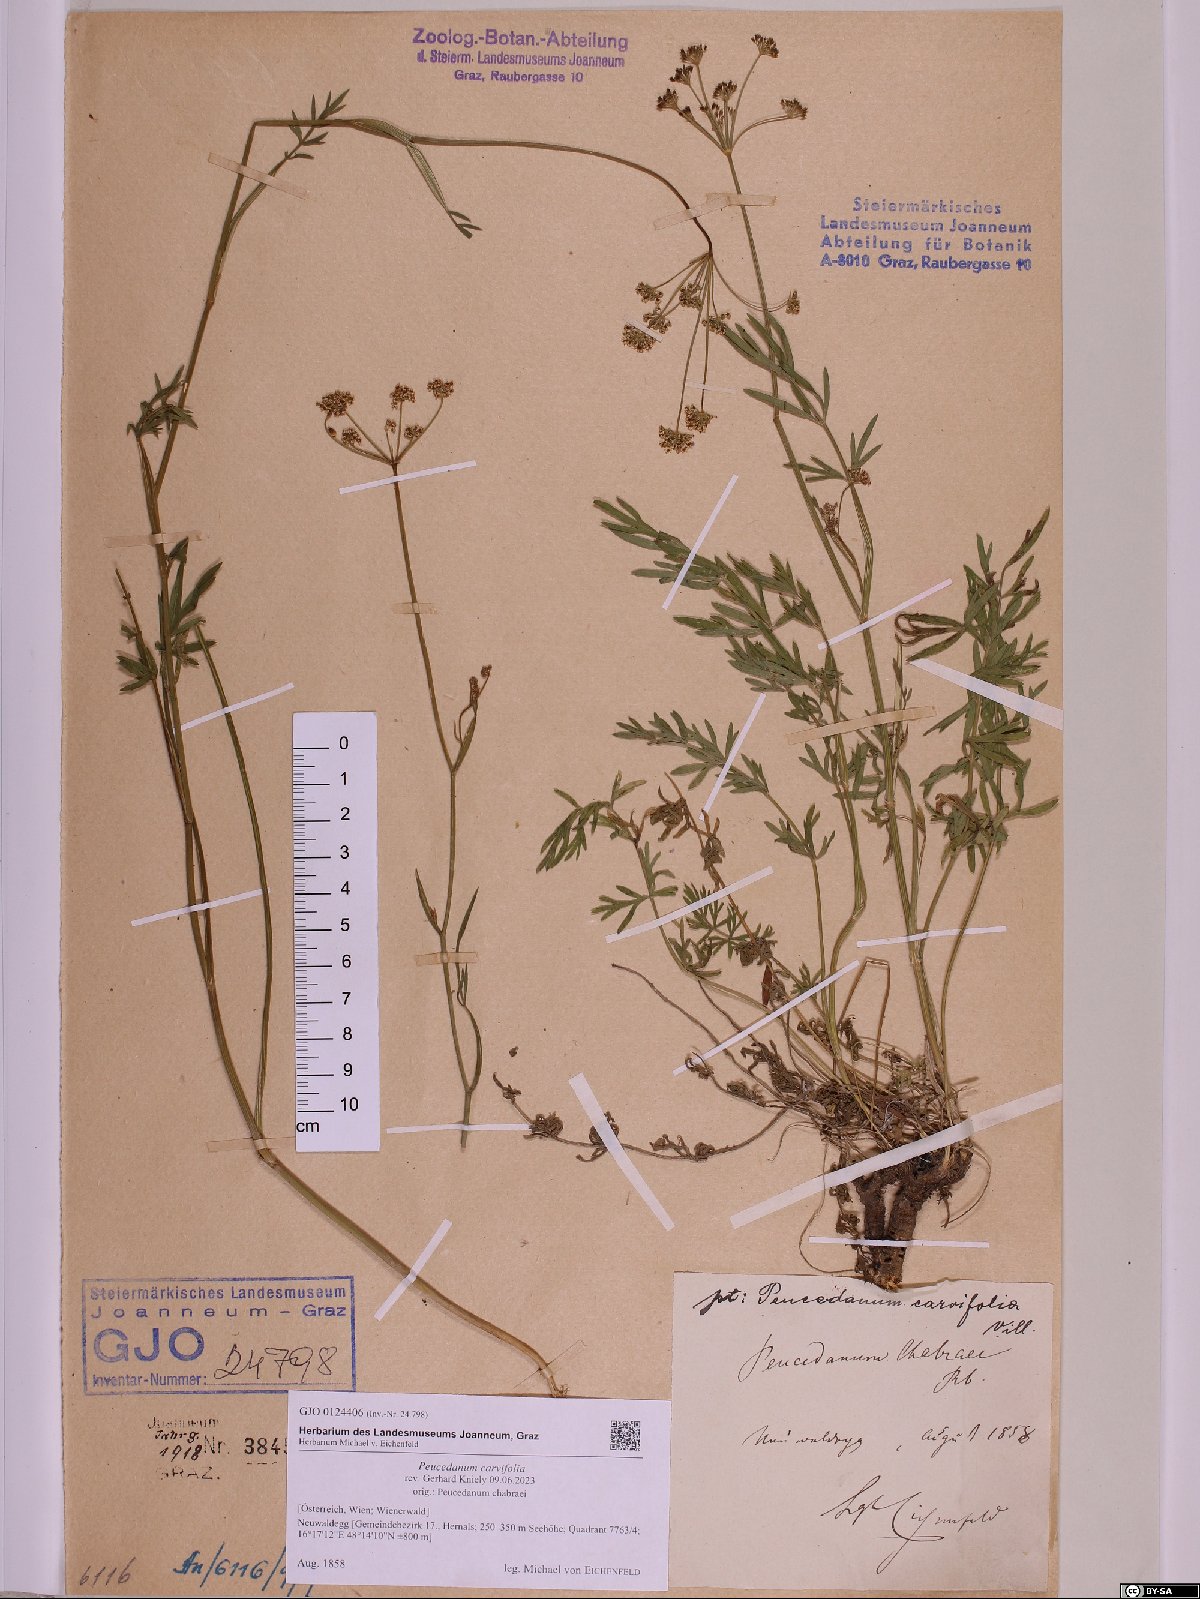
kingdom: Plantae
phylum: Tracheophyta
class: Magnoliopsida
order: Apiales
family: Apiaceae
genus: Dichoropetalum
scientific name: Dichoropetalum carvifolia
